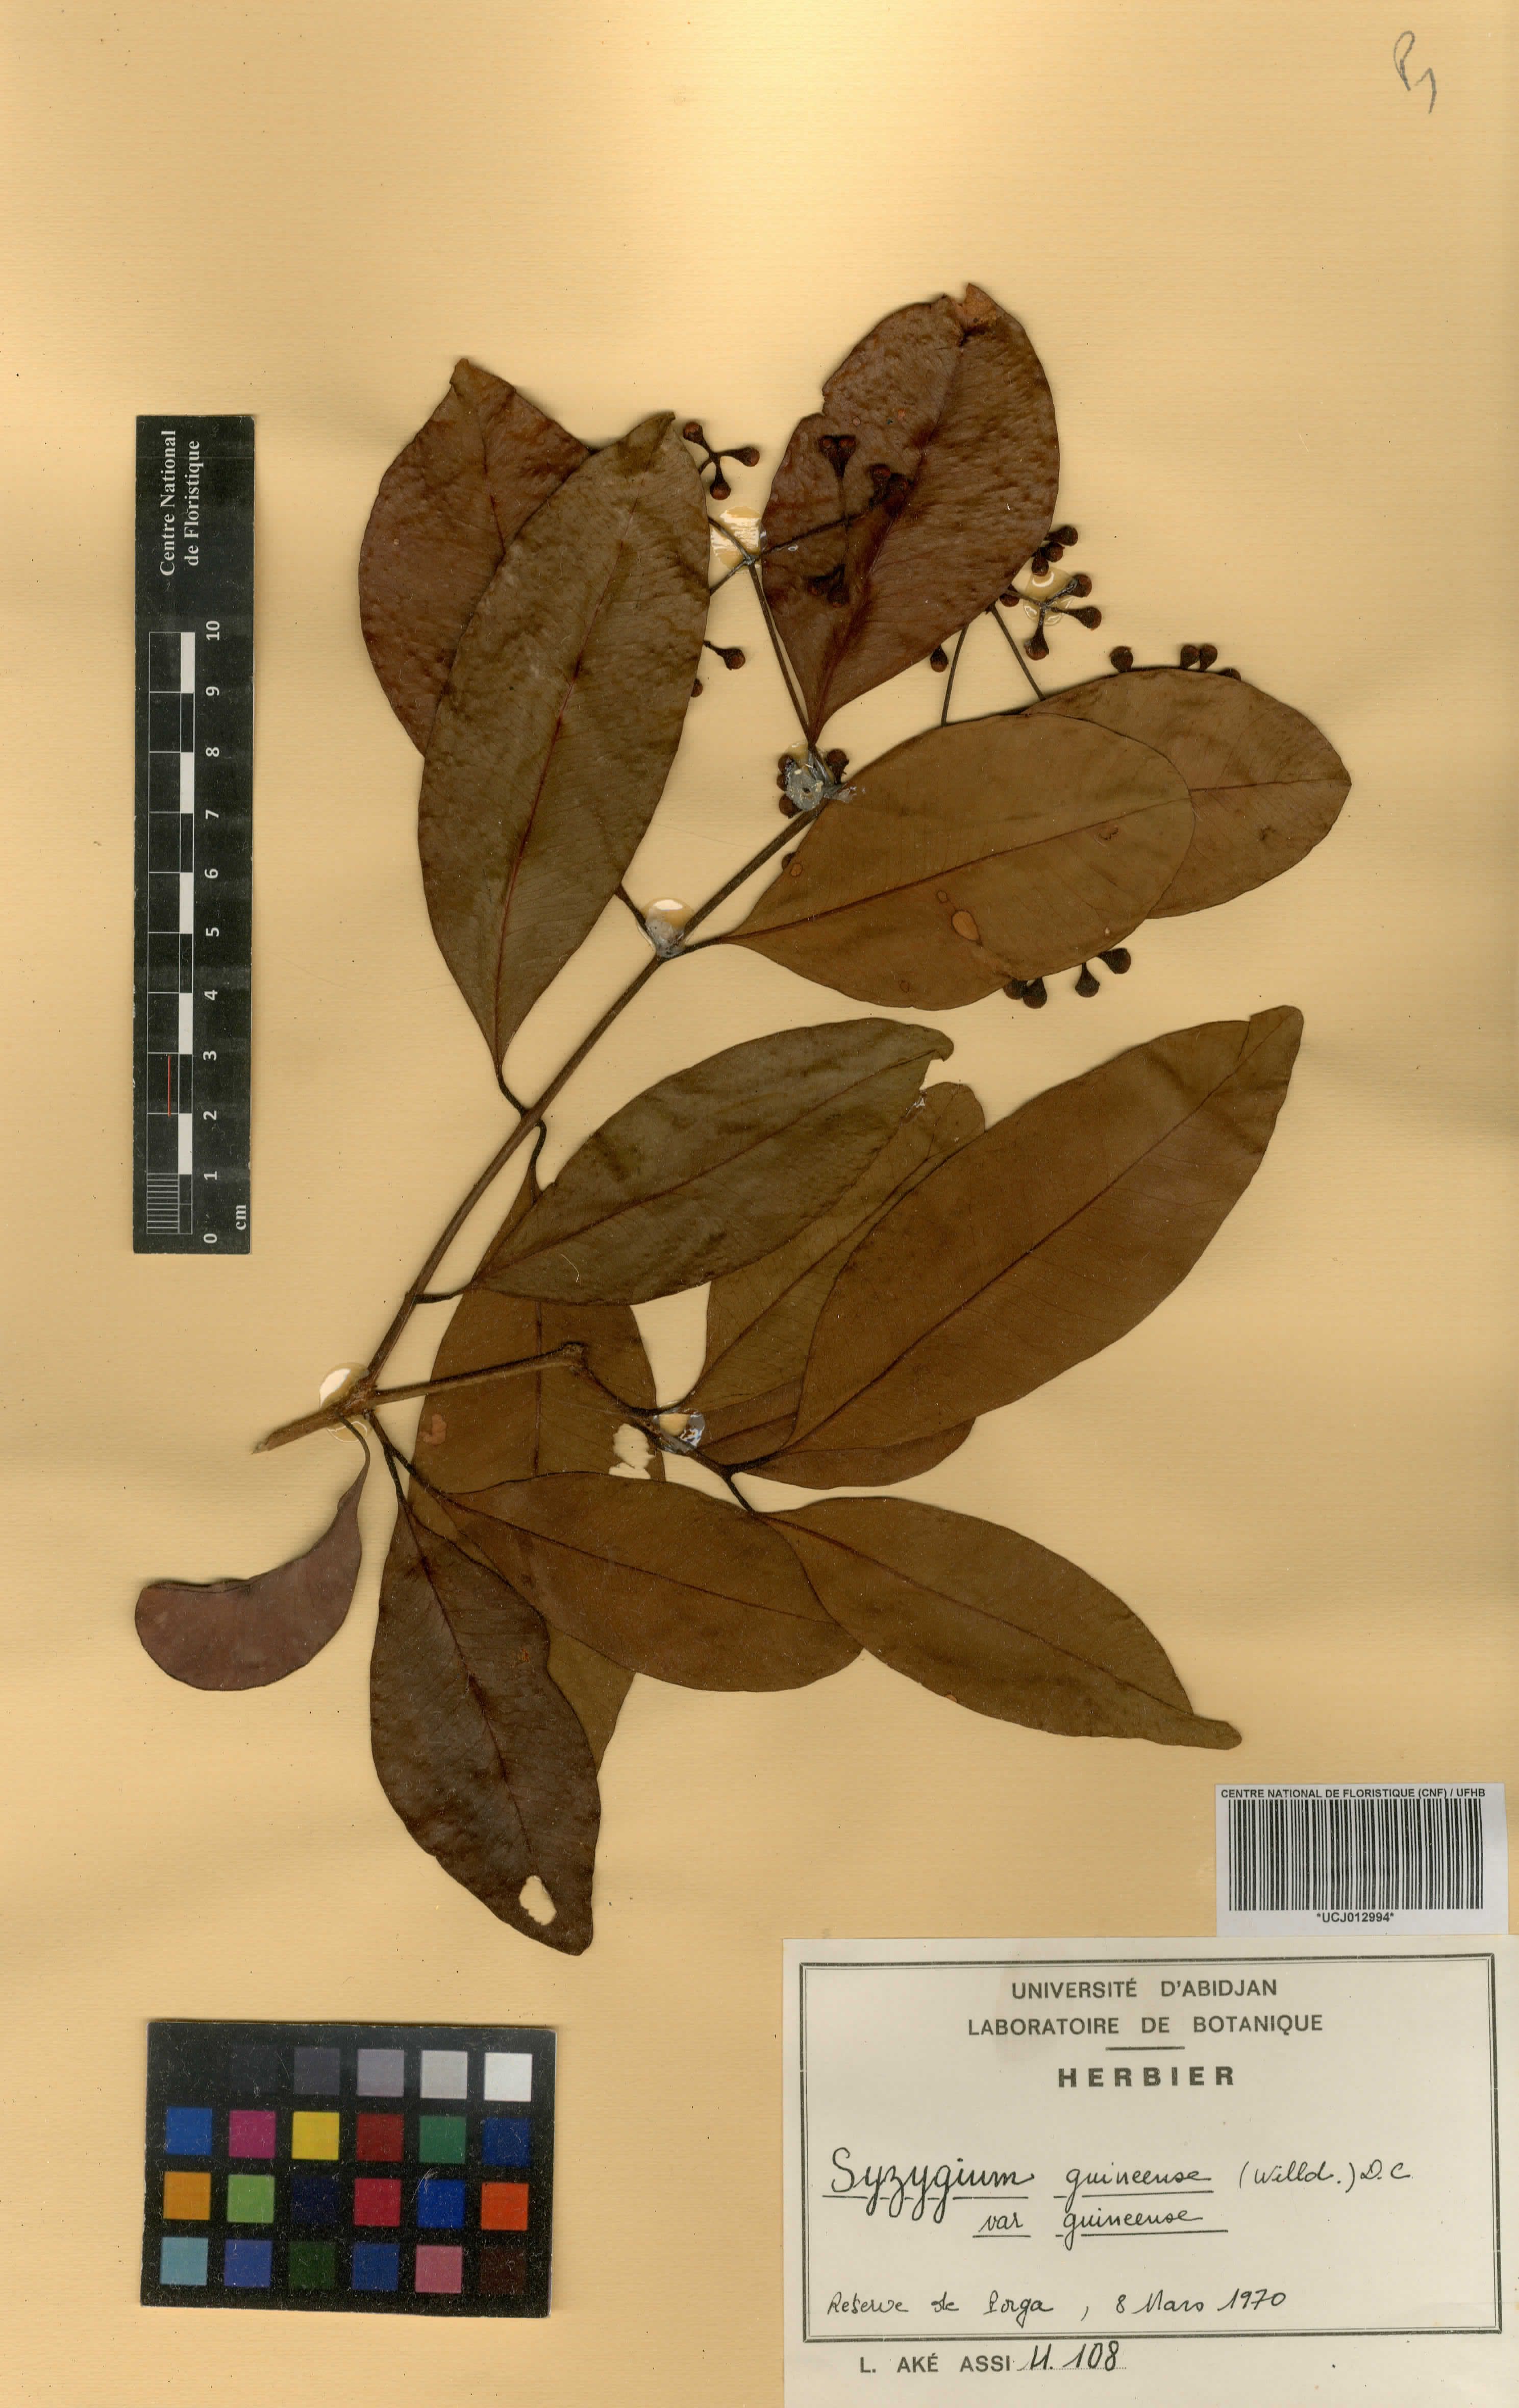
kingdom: Plantae
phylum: Tracheophyta
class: Magnoliopsida
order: Myrtales
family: Myrtaceae
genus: Syzygium
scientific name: Syzygium guineense
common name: Water-pear
